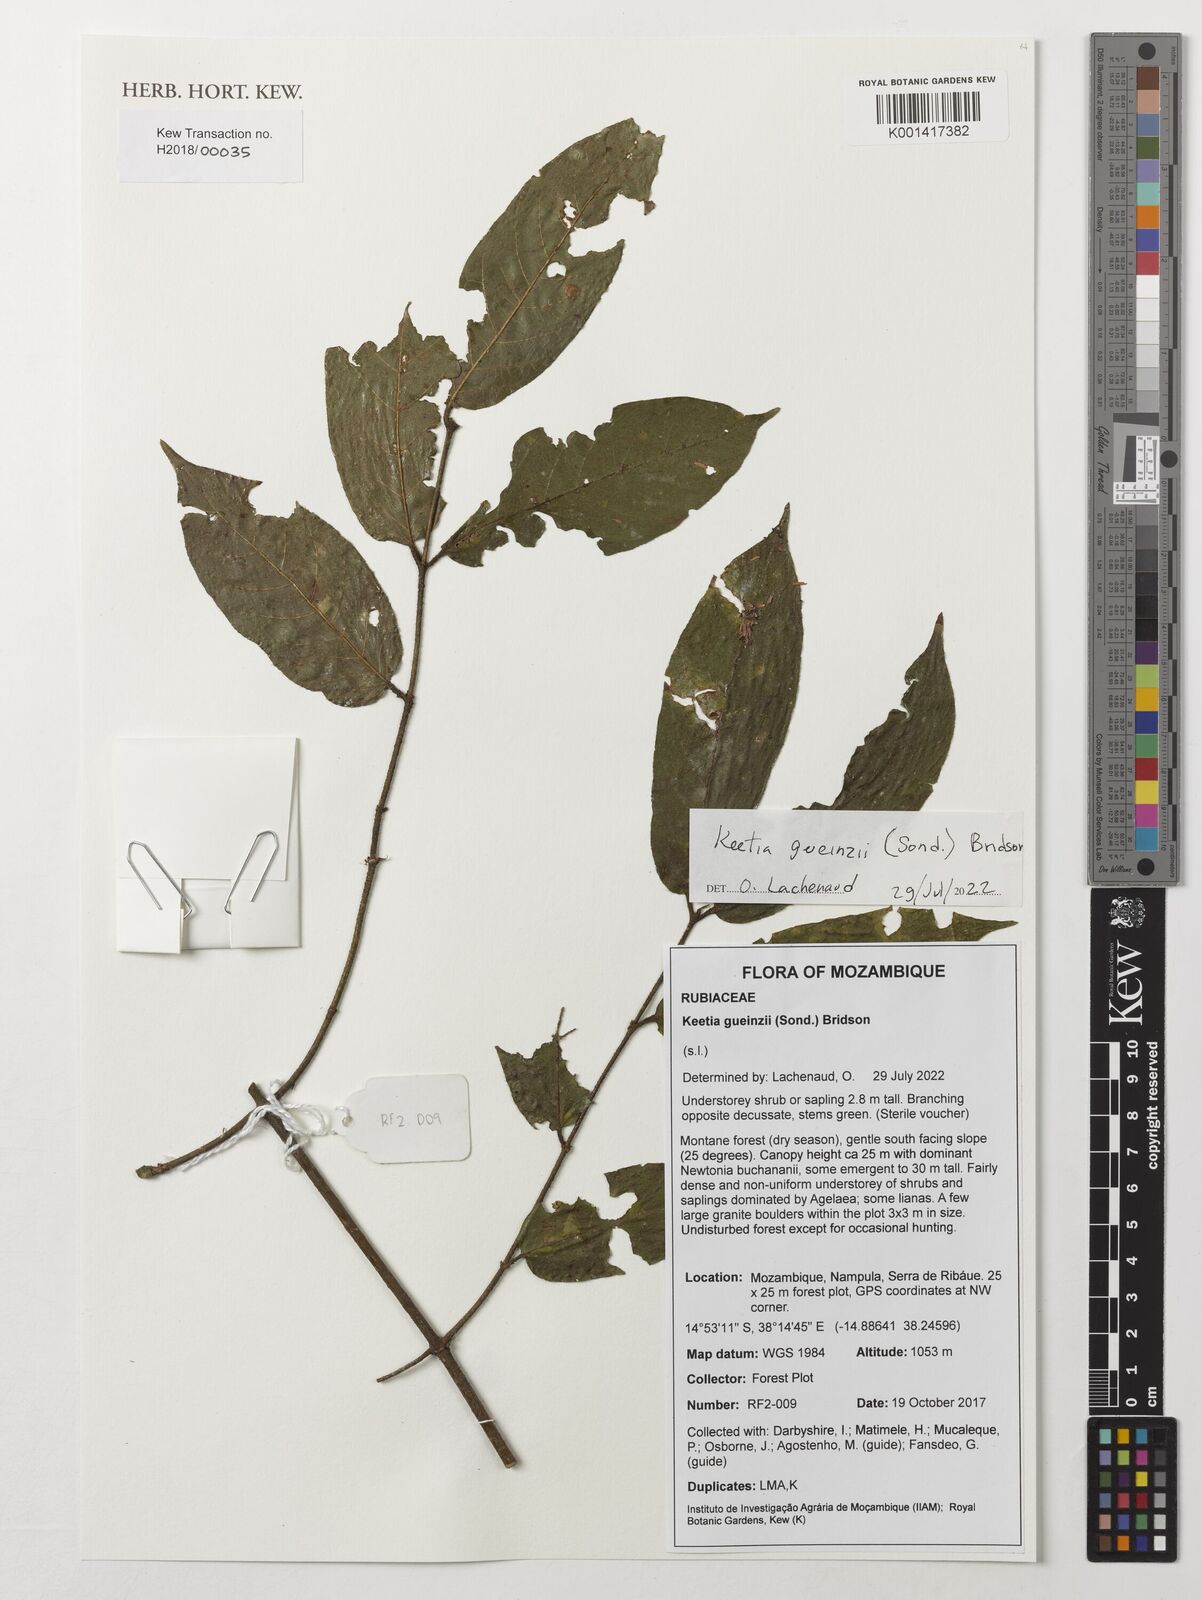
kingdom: Plantae
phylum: Tracheophyta
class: Magnoliopsida
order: Gentianales
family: Rubiaceae
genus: Keetia
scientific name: Keetia gueinzii
